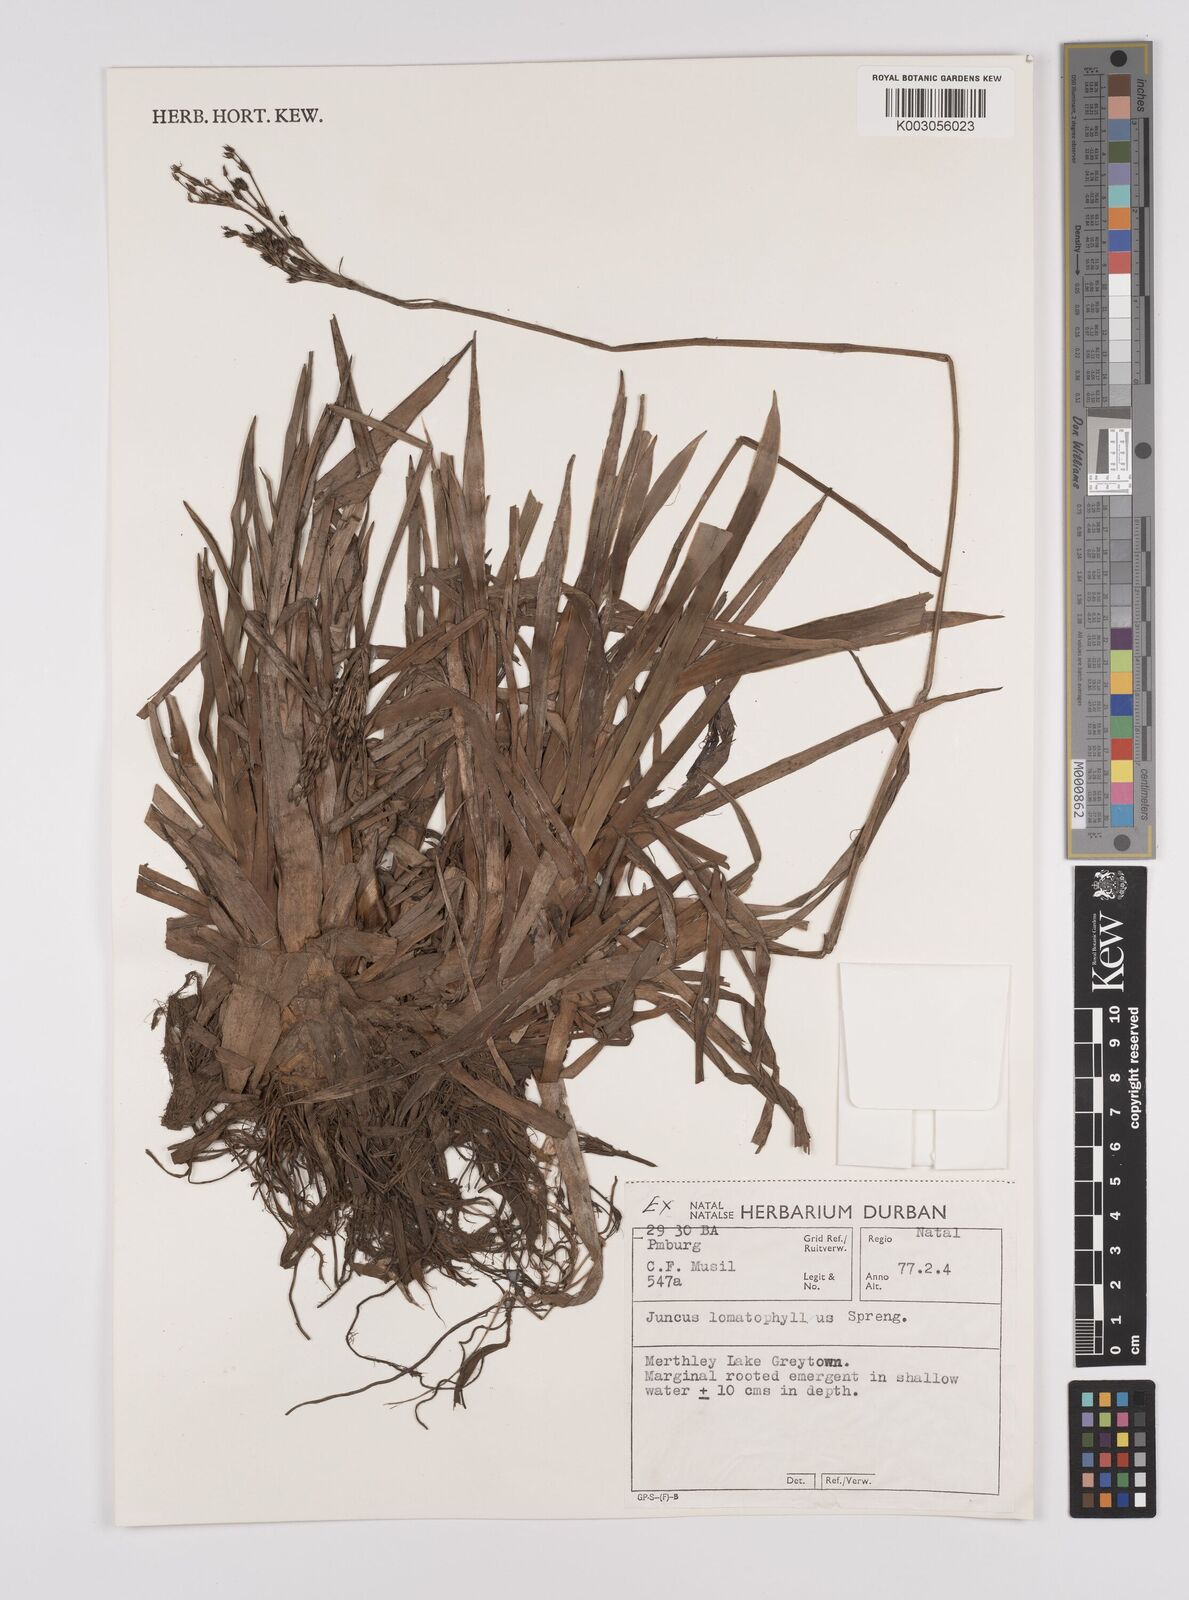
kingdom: Plantae
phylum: Tracheophyta
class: Liliopsida
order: Poales
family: Juncaceae
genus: Juncus
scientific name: Juncus lomatophyllus
